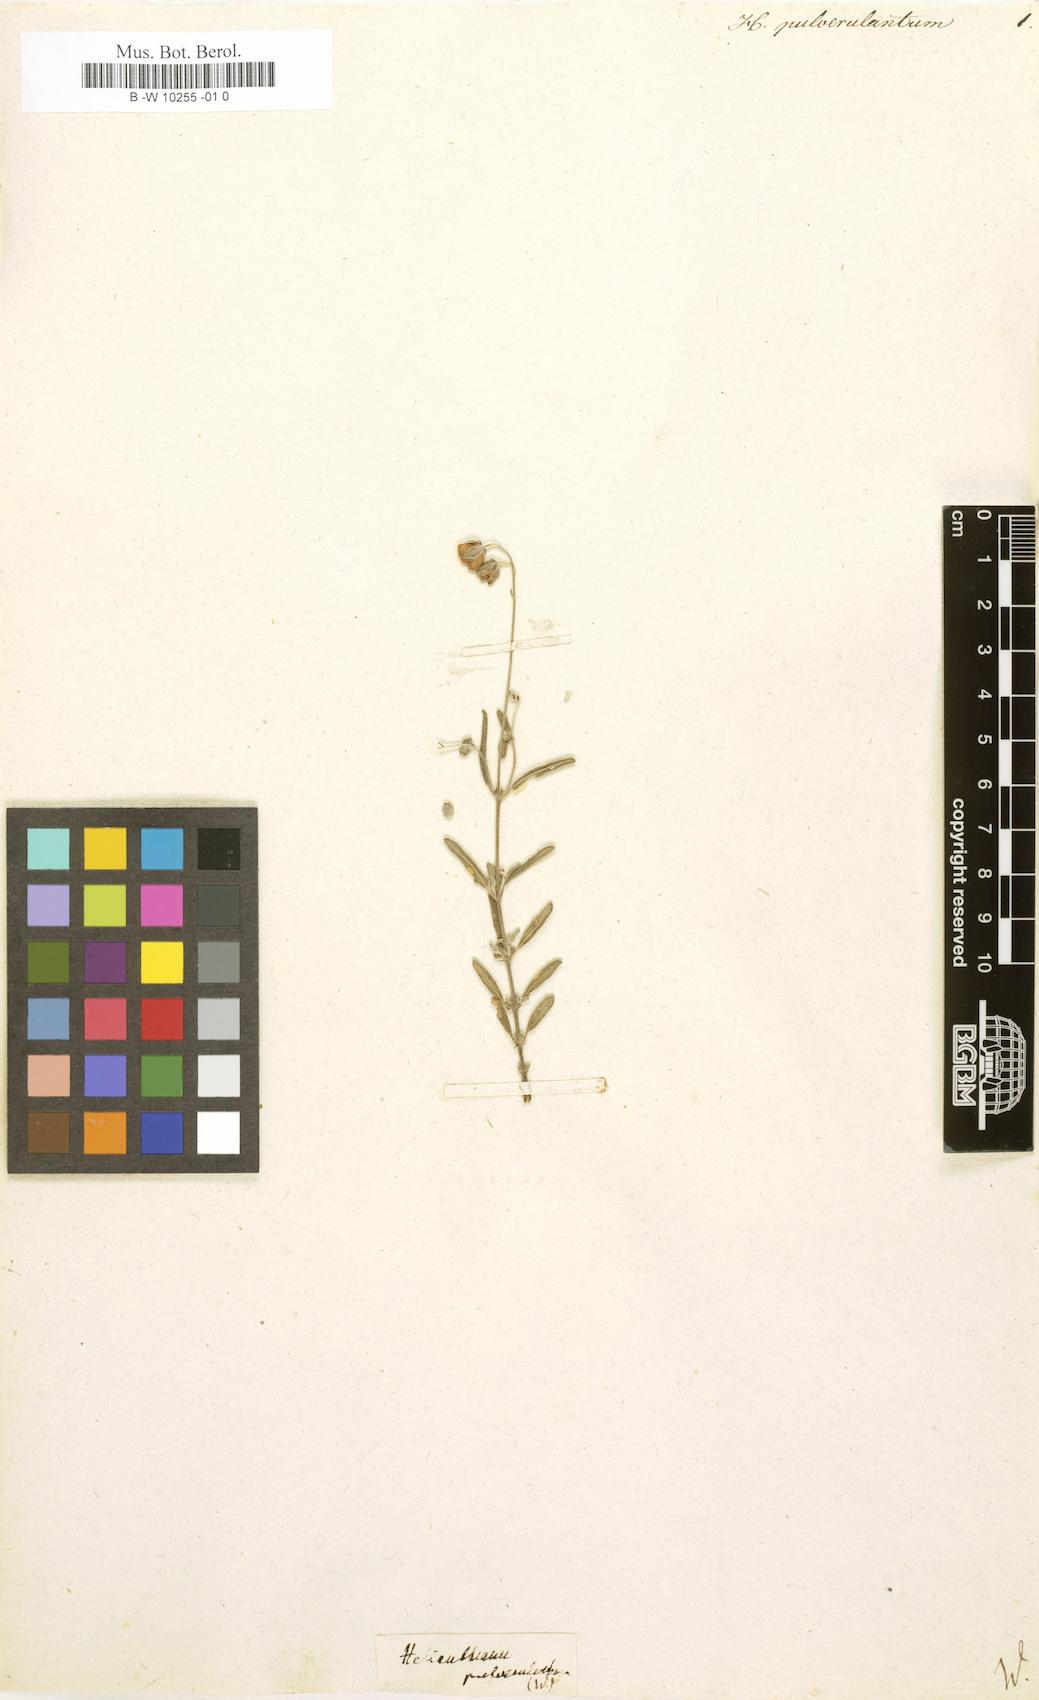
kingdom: Plantae
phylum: Tracheophyta
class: Magnoliopsida
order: Malvales
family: Cistaceae
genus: Helianthemum
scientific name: Helianthemum
